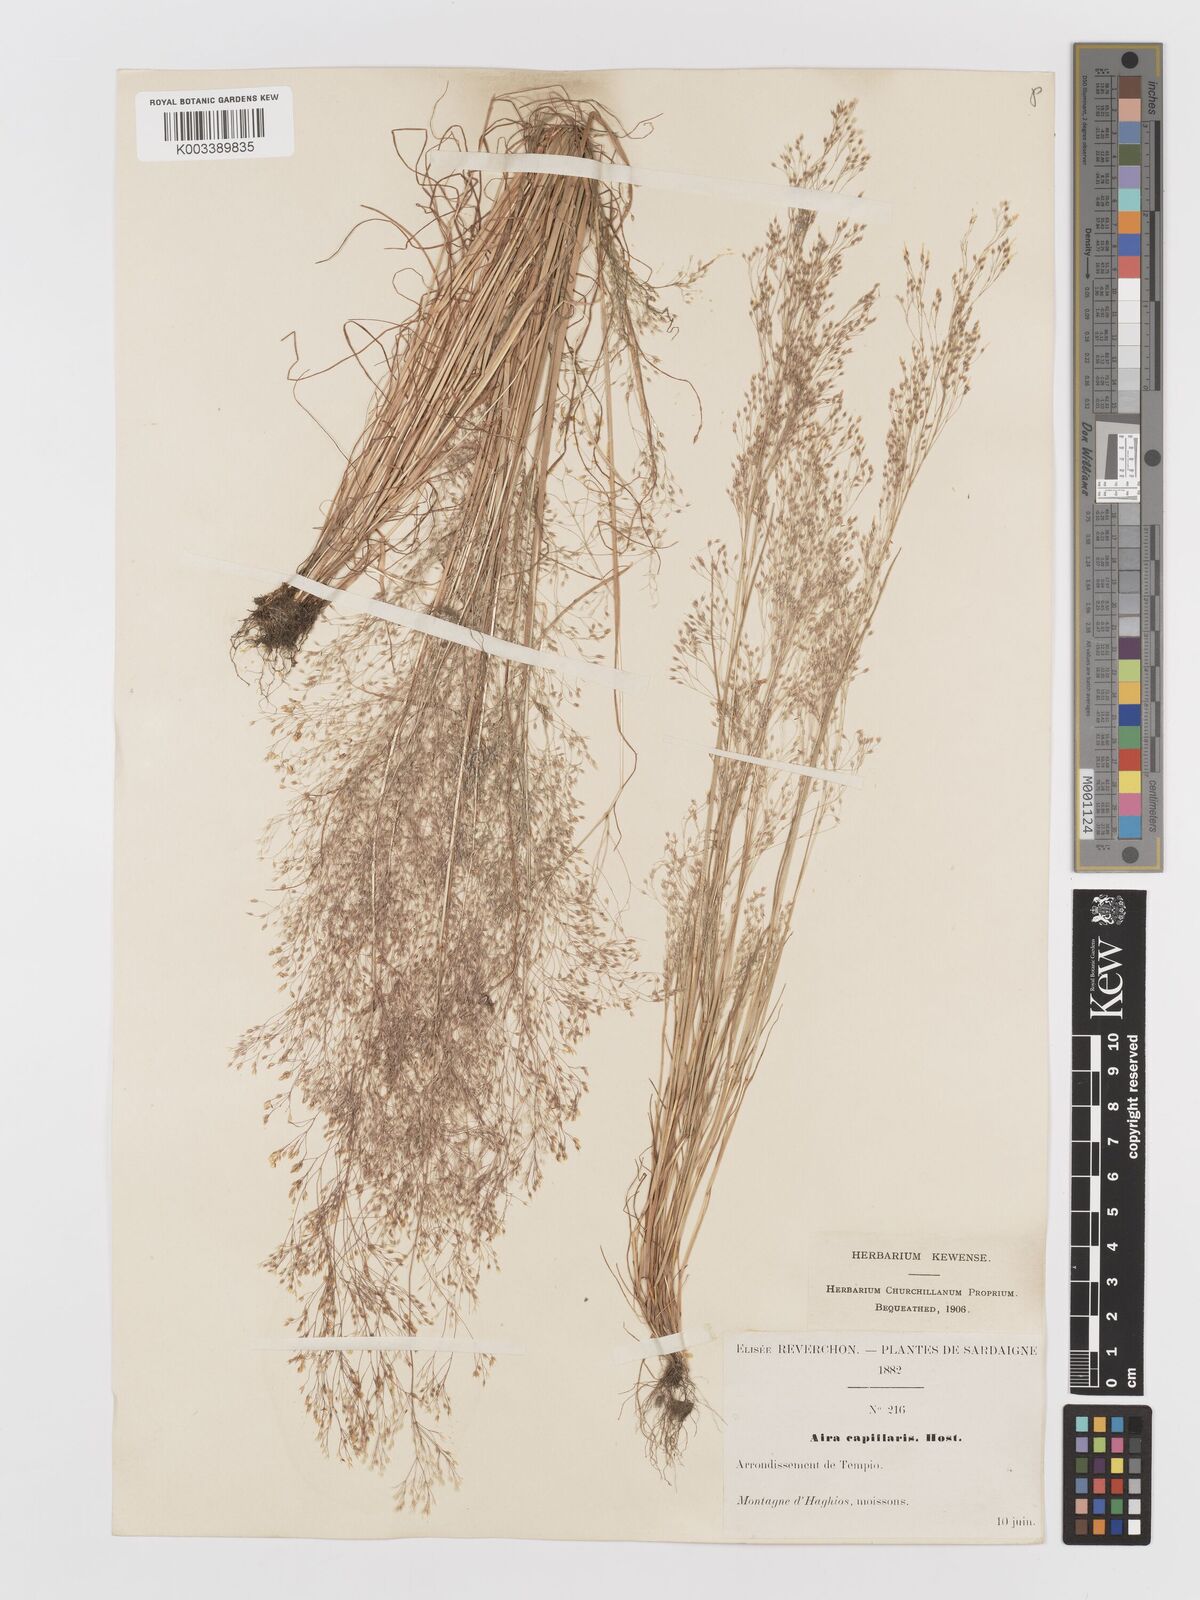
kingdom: Plantae
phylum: Tracheophyta
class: Liliopsida
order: Poales
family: Poaceae
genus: Aira
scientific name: Aira elegans
